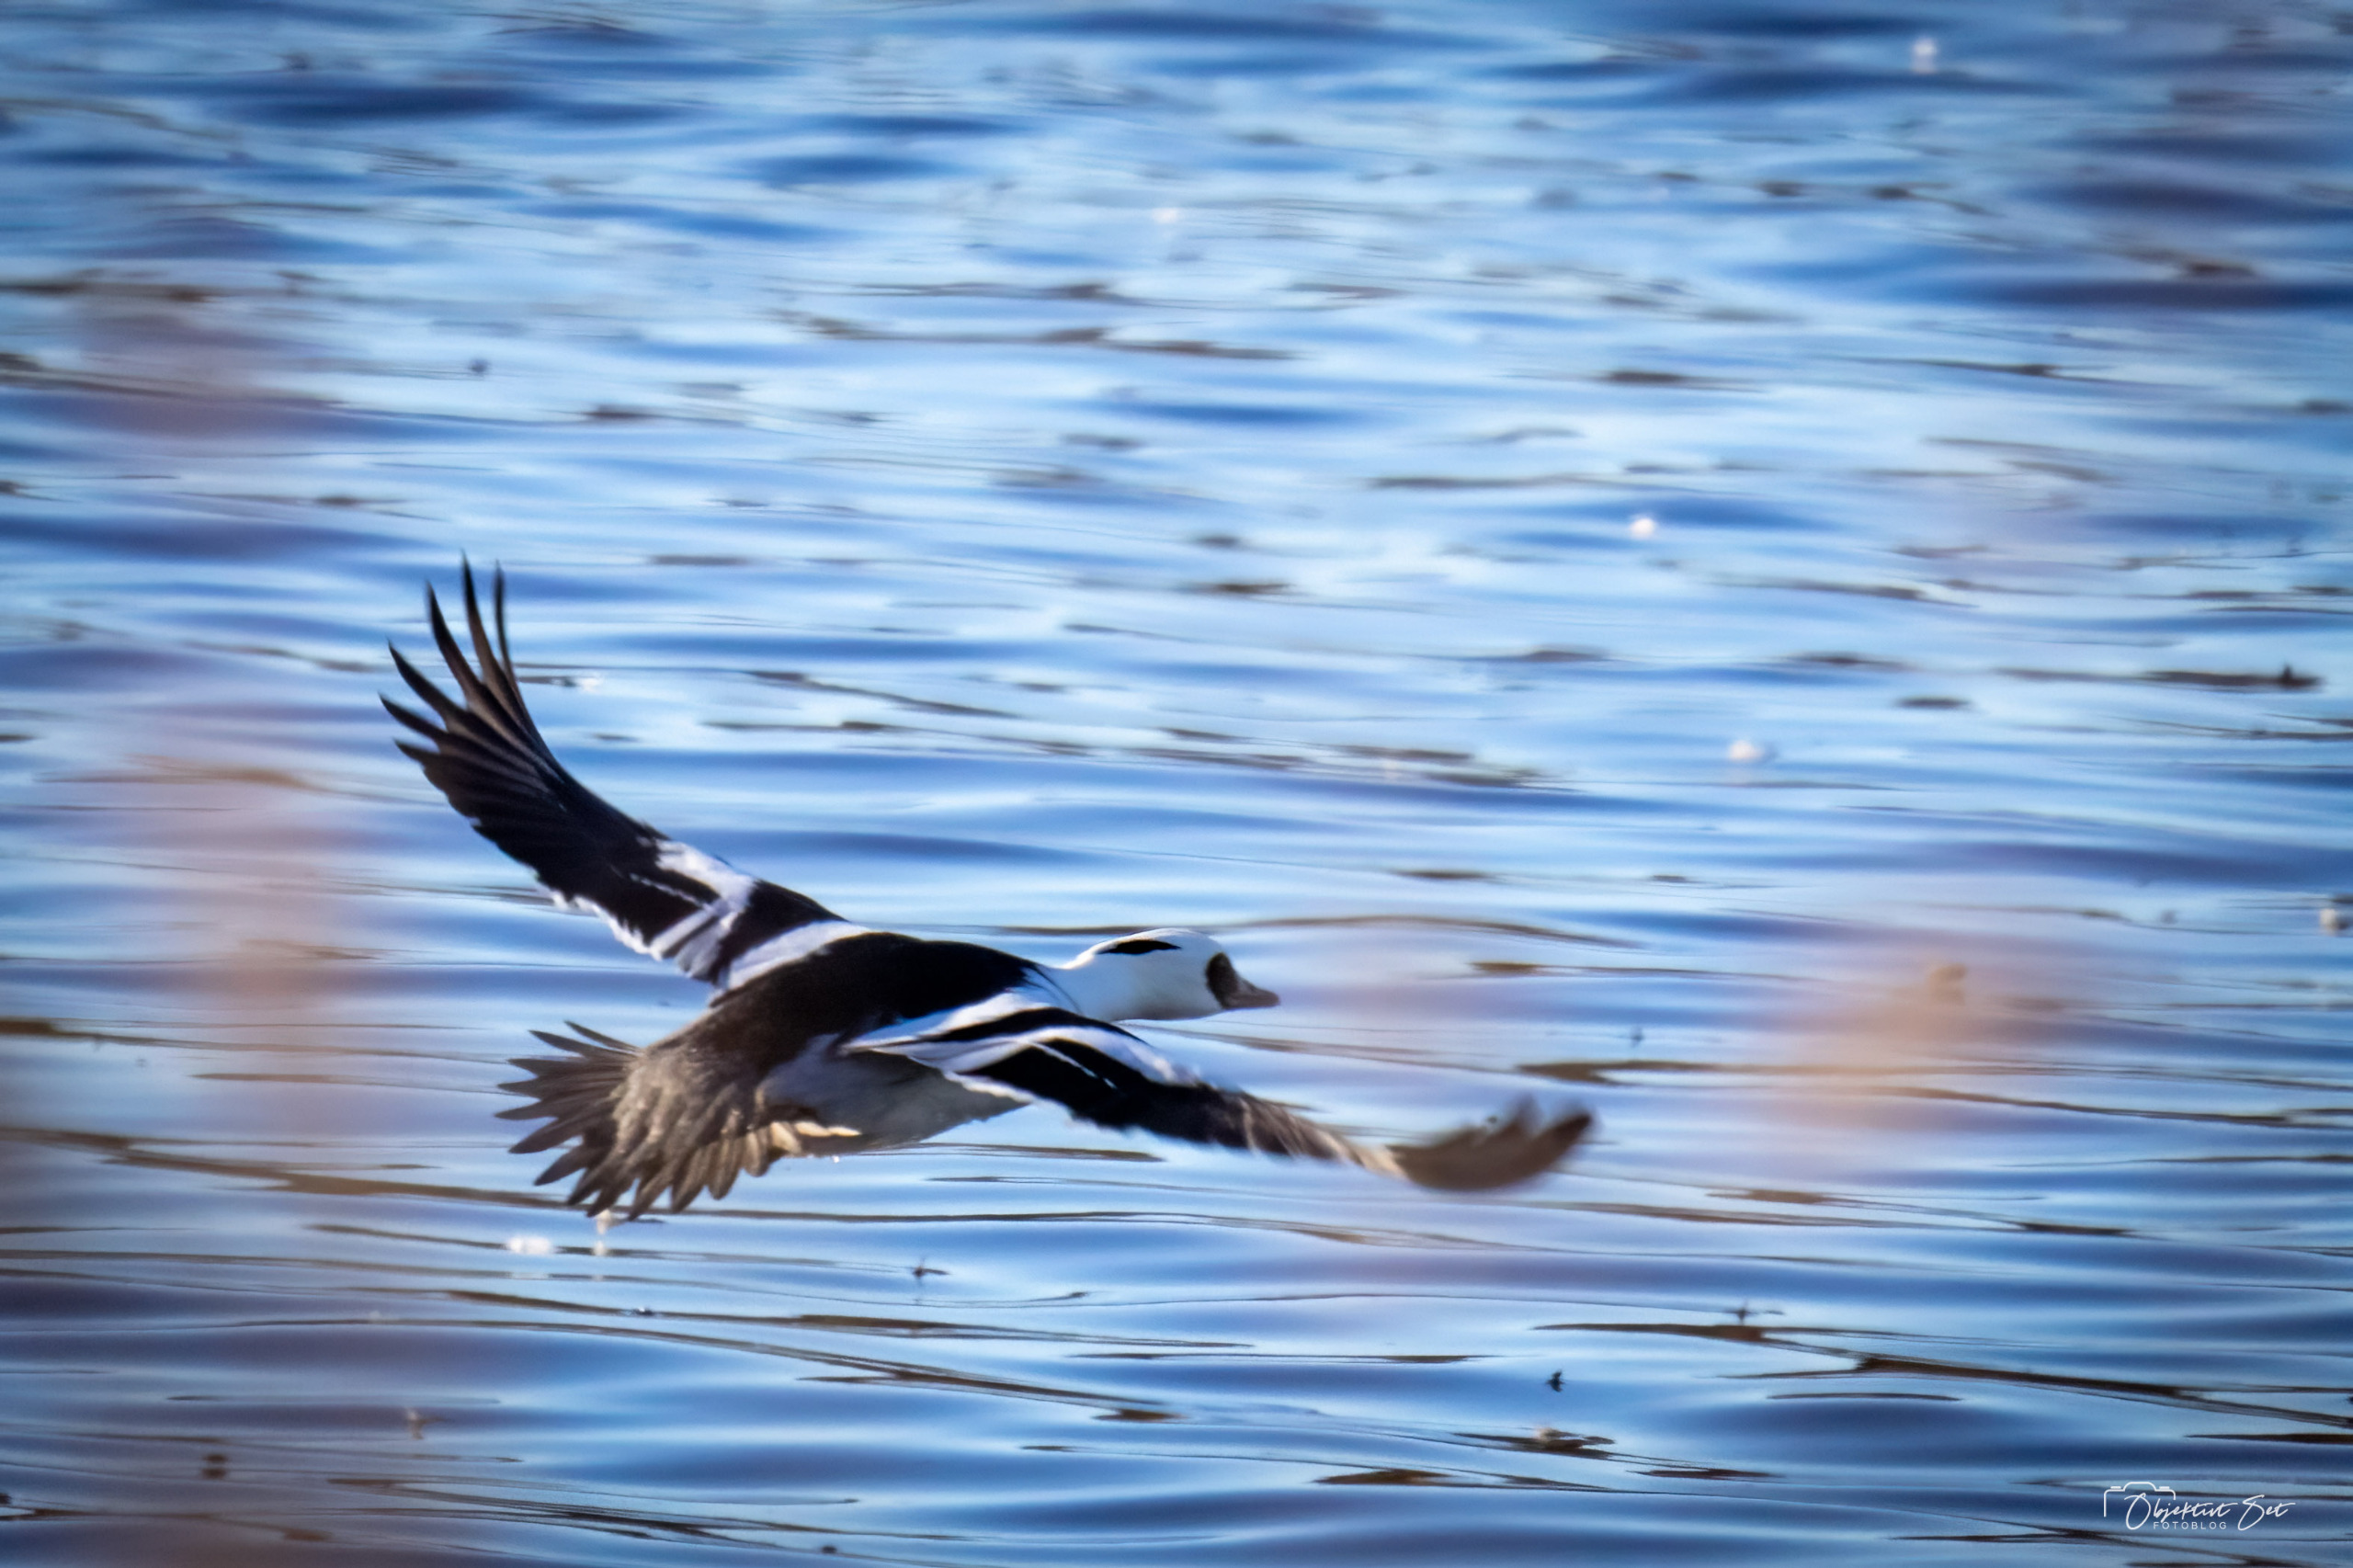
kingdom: Animalia
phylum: Chordata
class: Aves
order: Anseriformes
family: Anatidae
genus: Mergellus
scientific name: Mergellus albellus
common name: Lille skallesluger
